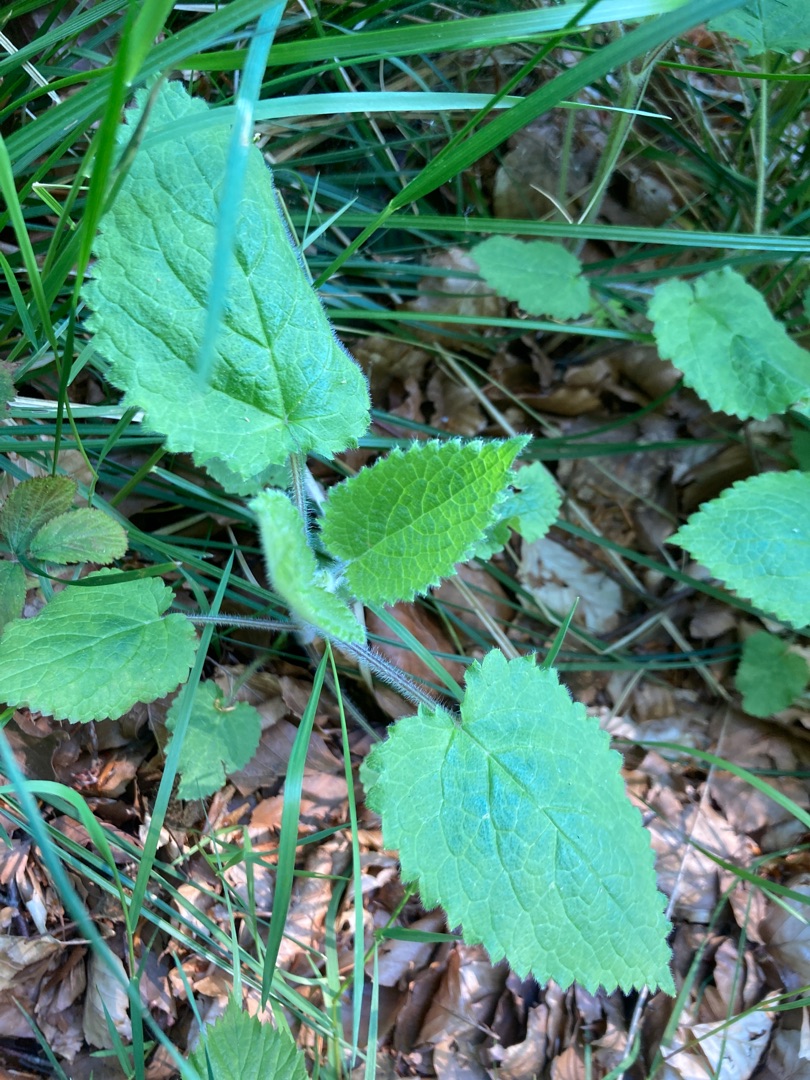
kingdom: Plantae
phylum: Tracheophyta
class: Magnoliopsida
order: Lamiales
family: Lamiaceae
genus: Stachys
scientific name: Stachys sylvatica
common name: Skov-galtetand
